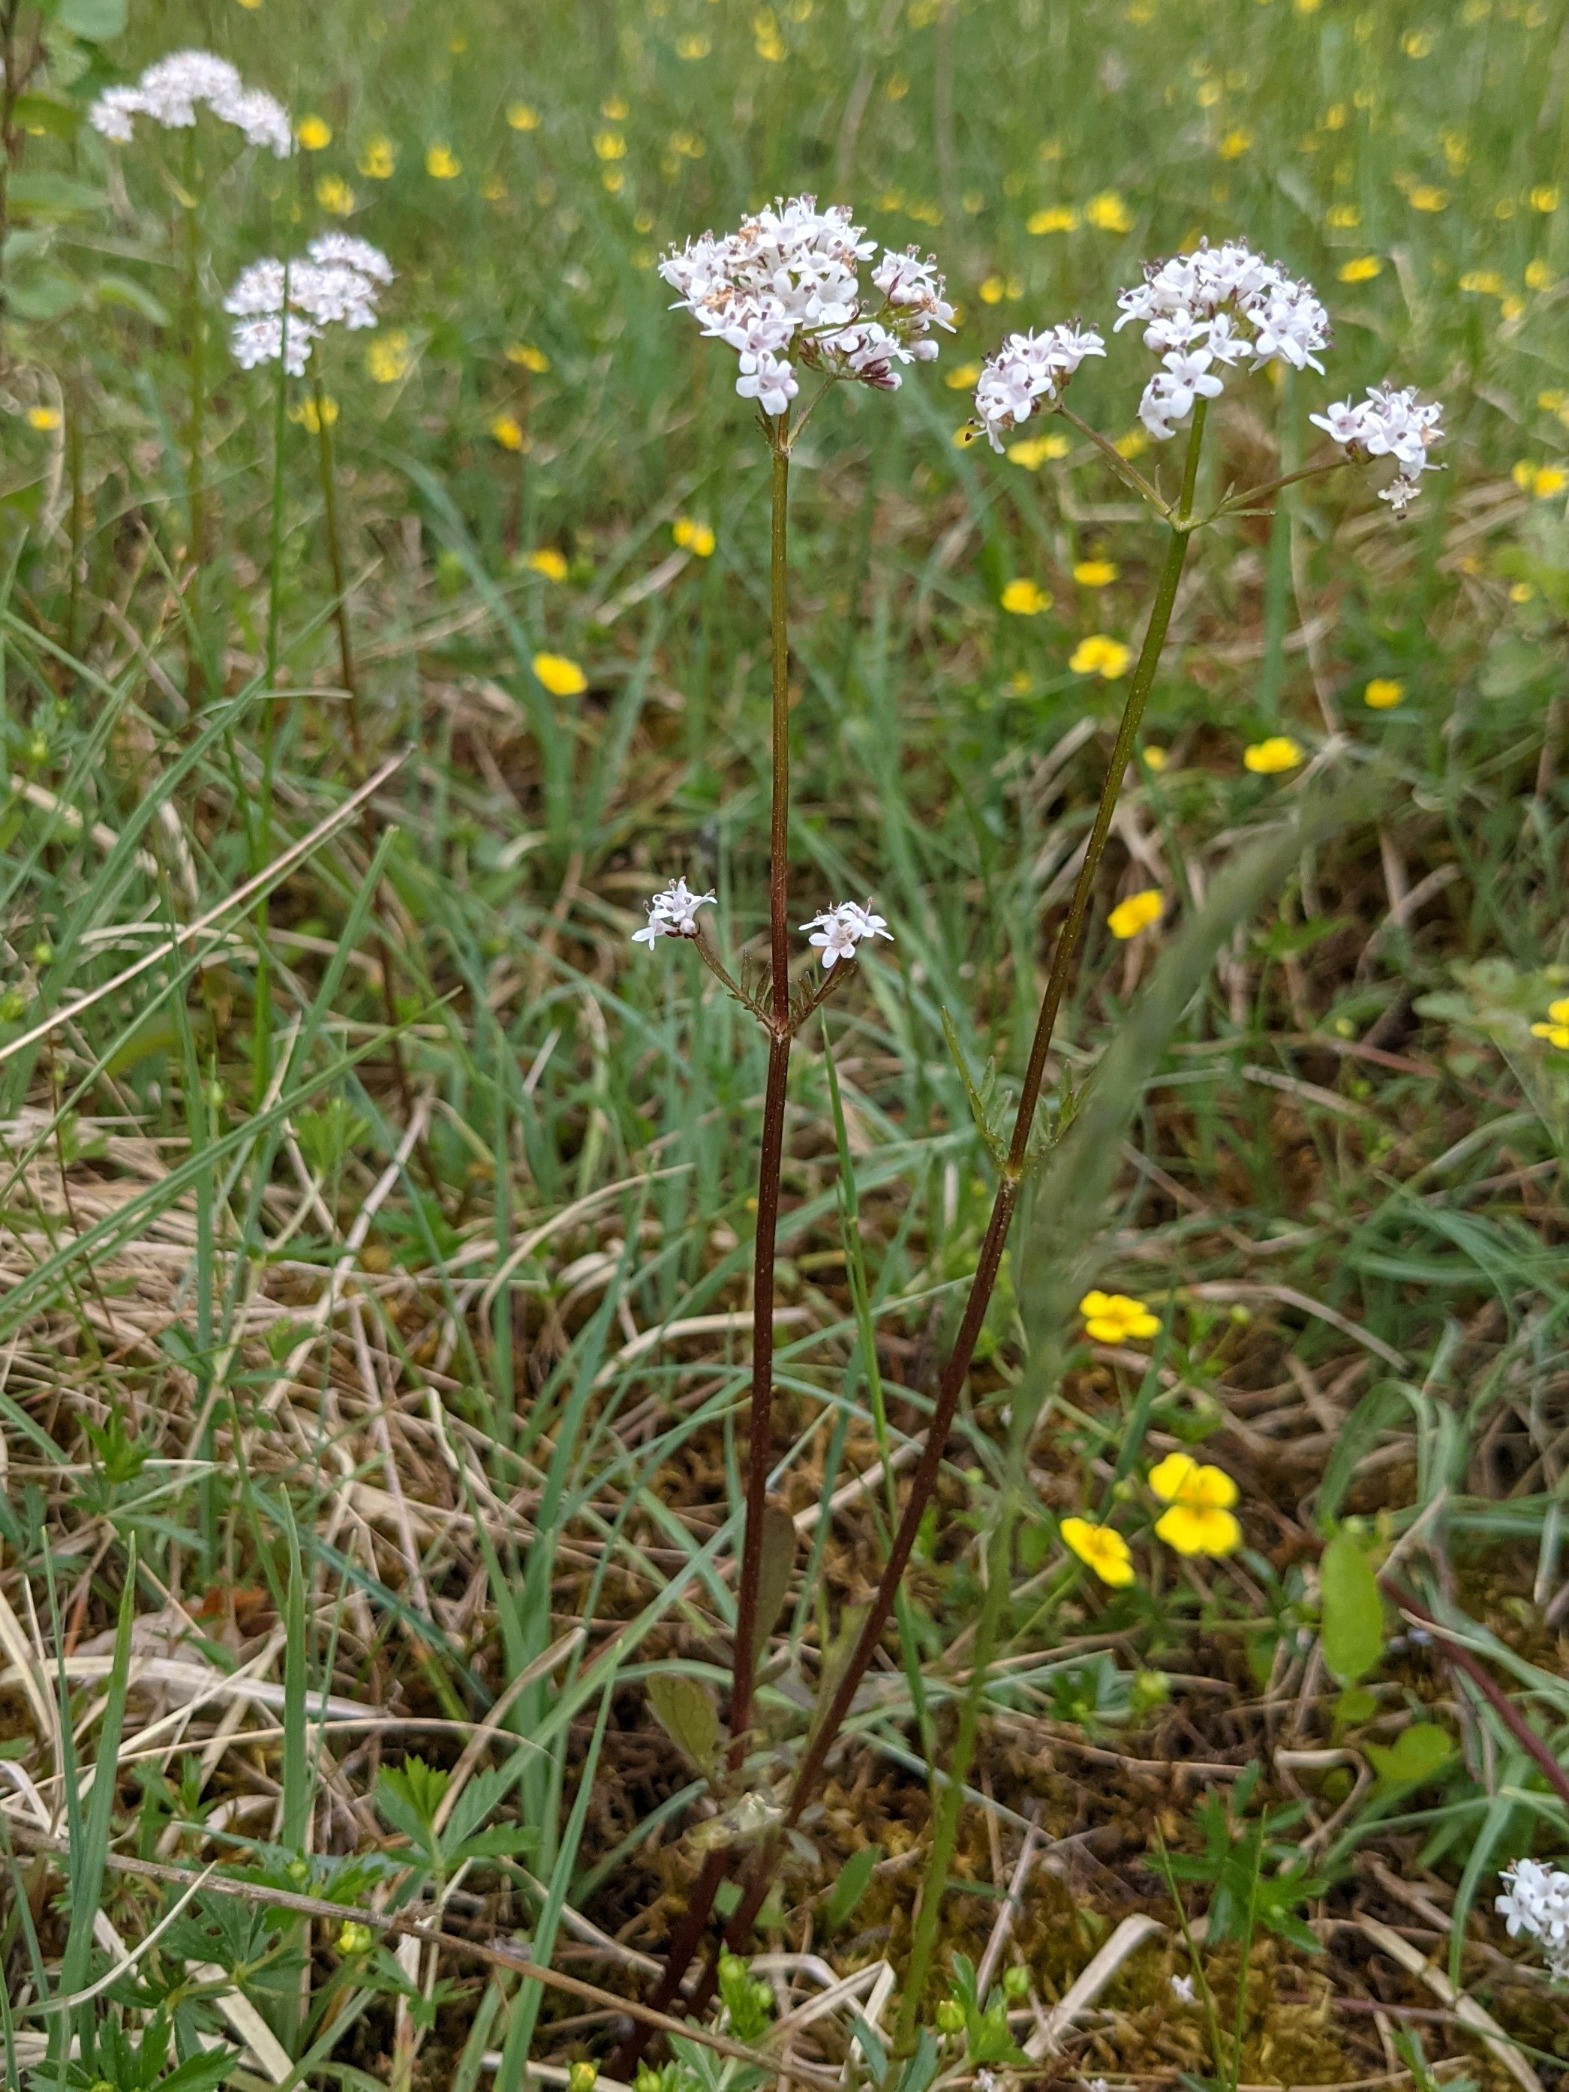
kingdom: Plantae
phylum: Tracheophyta
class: Magnoliopsida
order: Dipsacales
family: Caprifoliaceae
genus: Valeriana
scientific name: Valeriana dioica
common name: Tvebo baldrian
